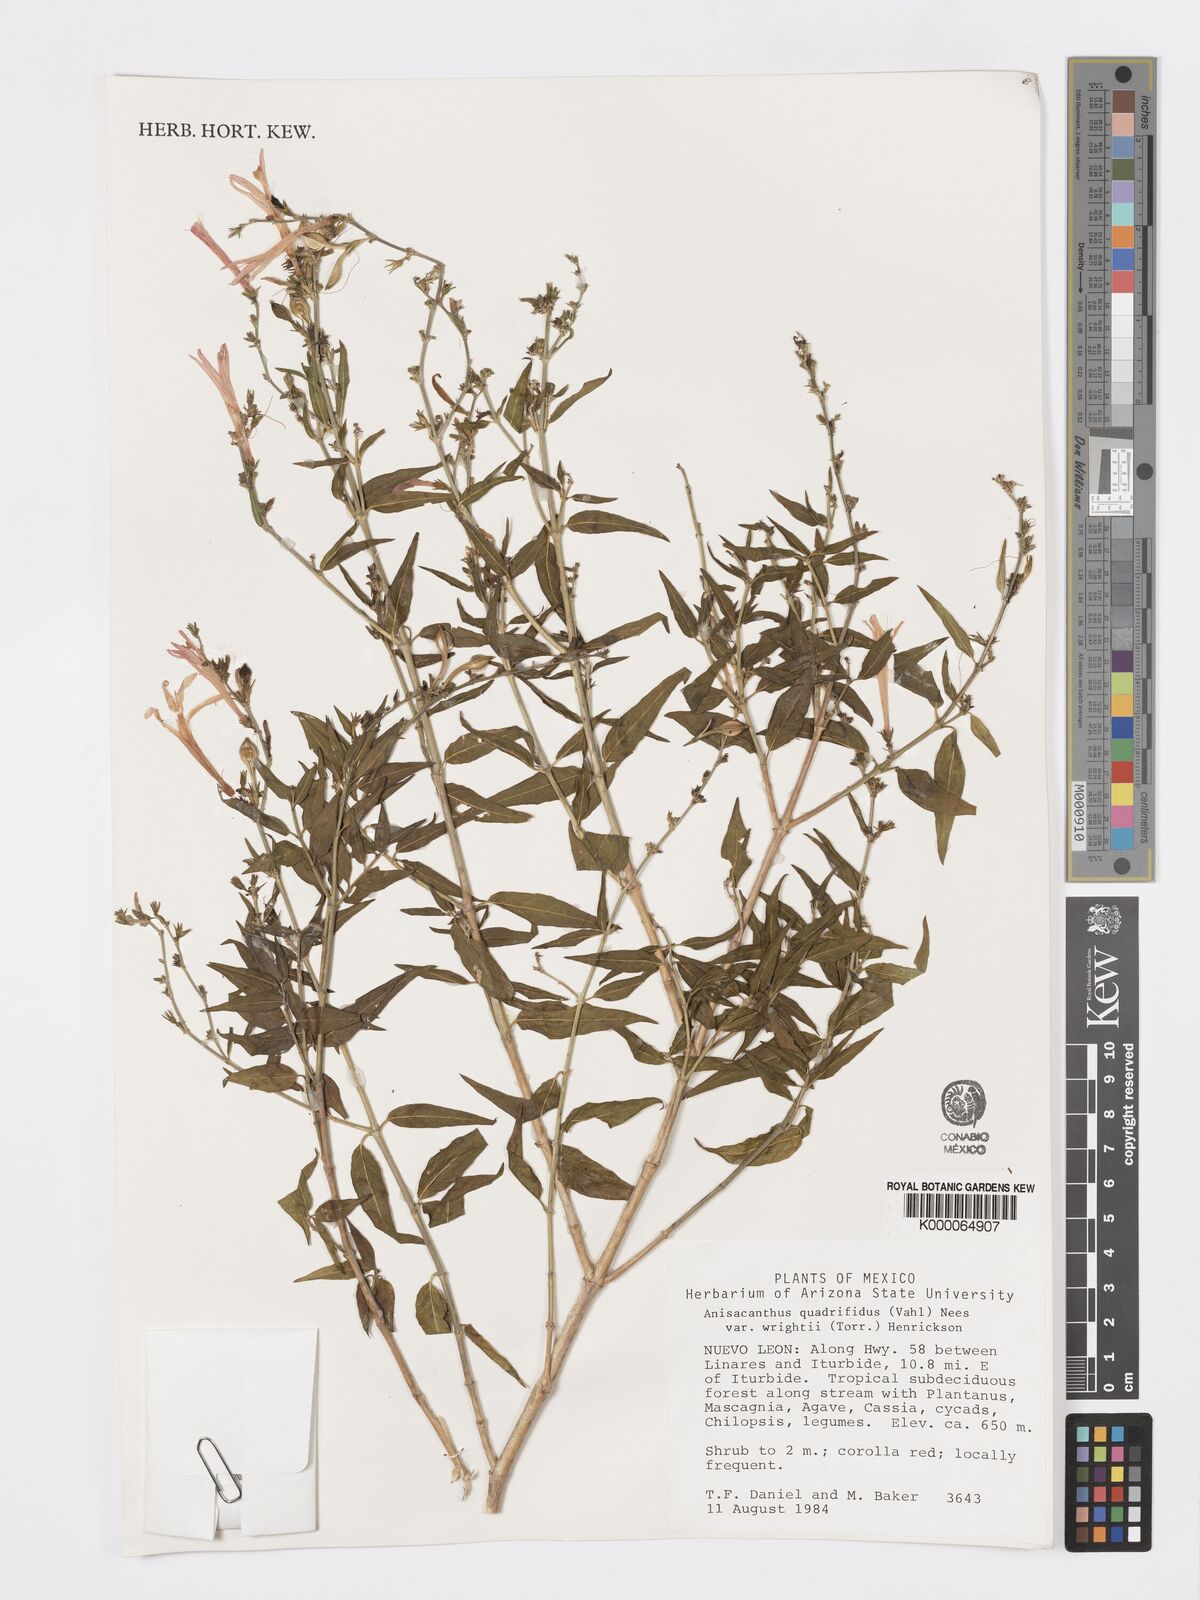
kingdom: Plantae
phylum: Tracheophyta
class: Magnoliopsida
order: Lamiales
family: Acanthaceae
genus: Anisacanthus
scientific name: Anisacanthus quadrifidus
